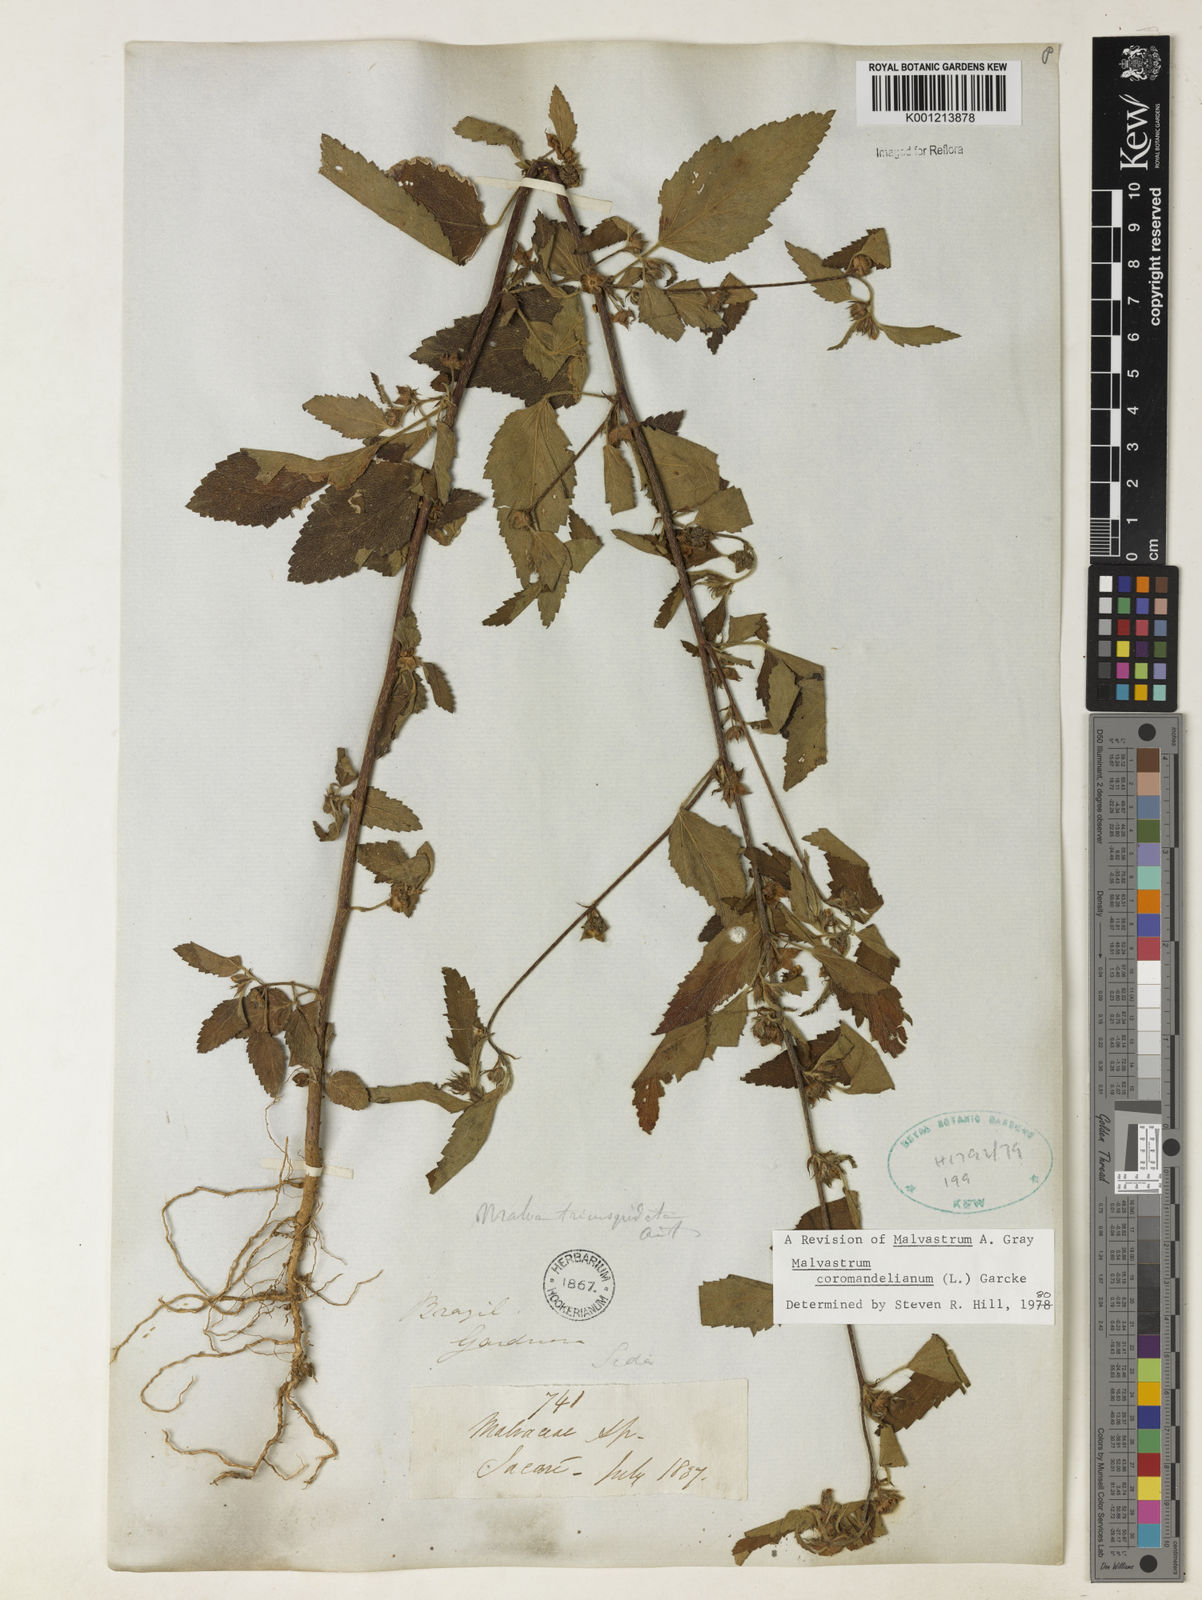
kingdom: Plantae
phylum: Tracheophyta
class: Magnoliopsida
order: Malvales
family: Malvaceae
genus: Malvastrum
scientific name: Malvastrum coromandelianum
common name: Threelobe false mallow
